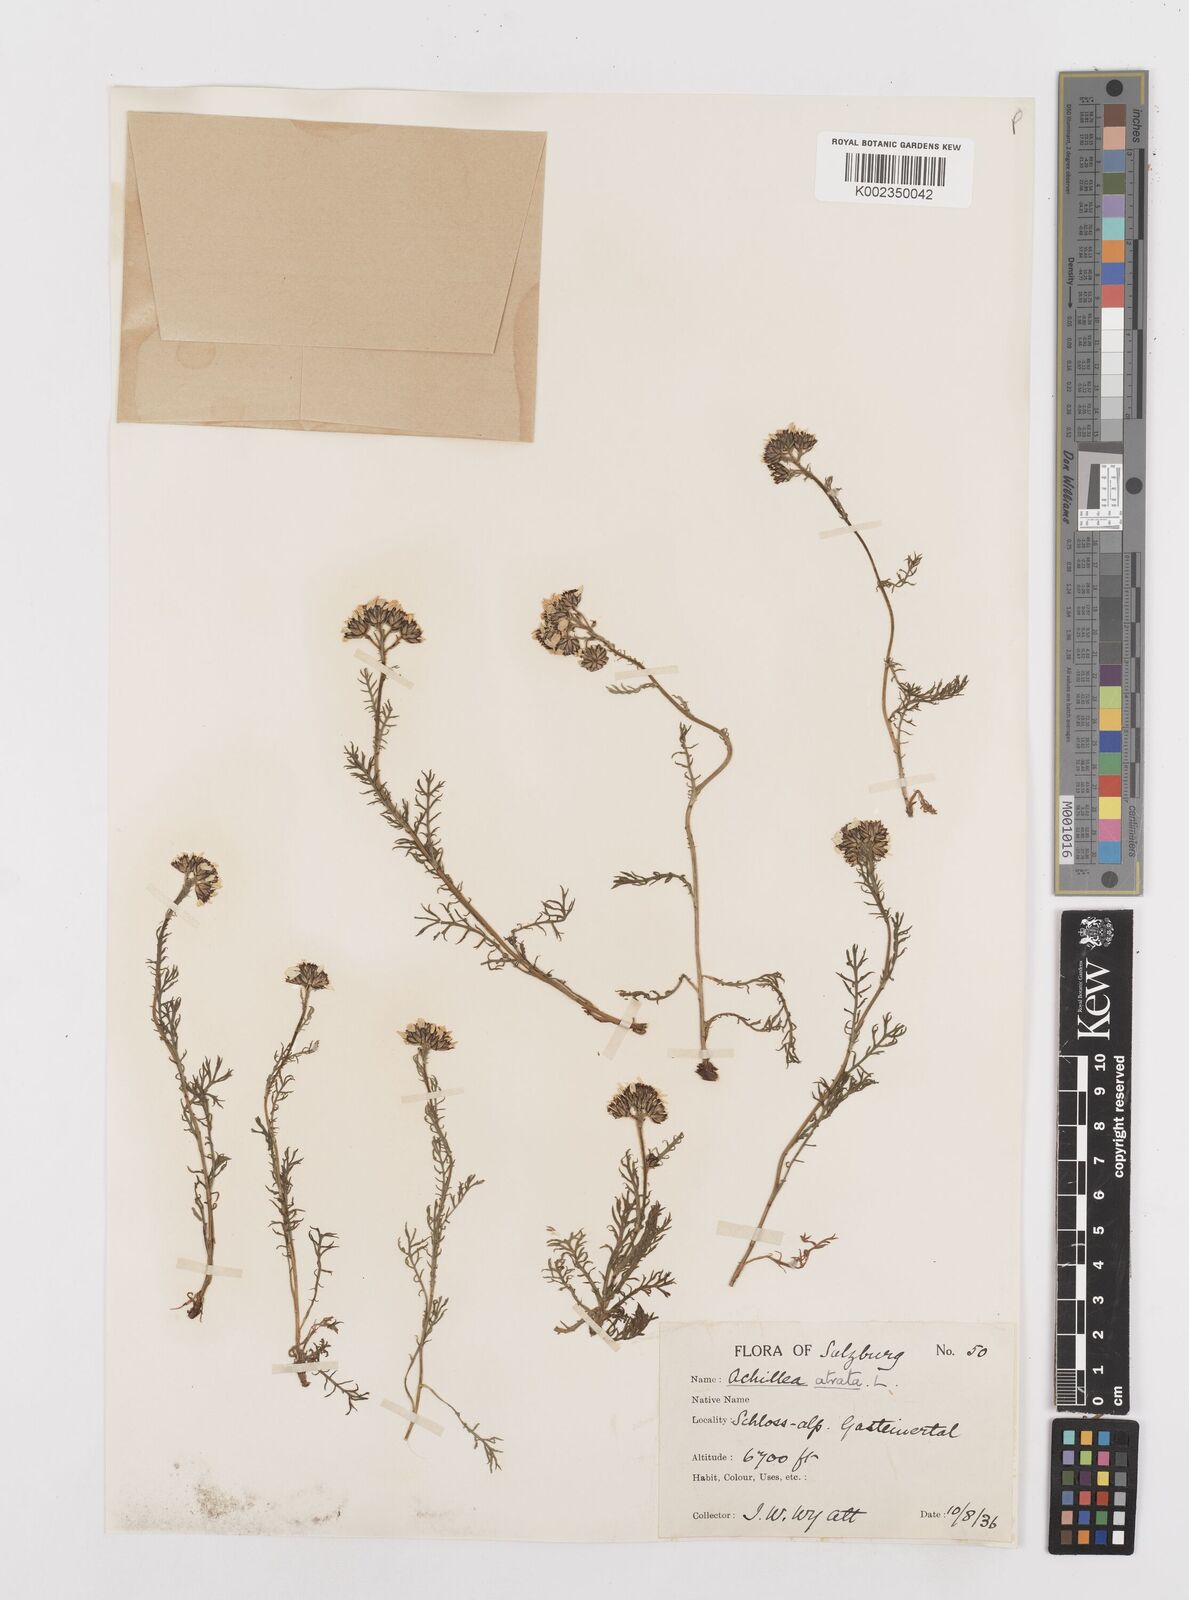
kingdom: Plantae
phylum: Tracheophyta
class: Magnoliopsida
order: Asterales
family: Asteraceae
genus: Achillea
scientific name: Achillea atrata
